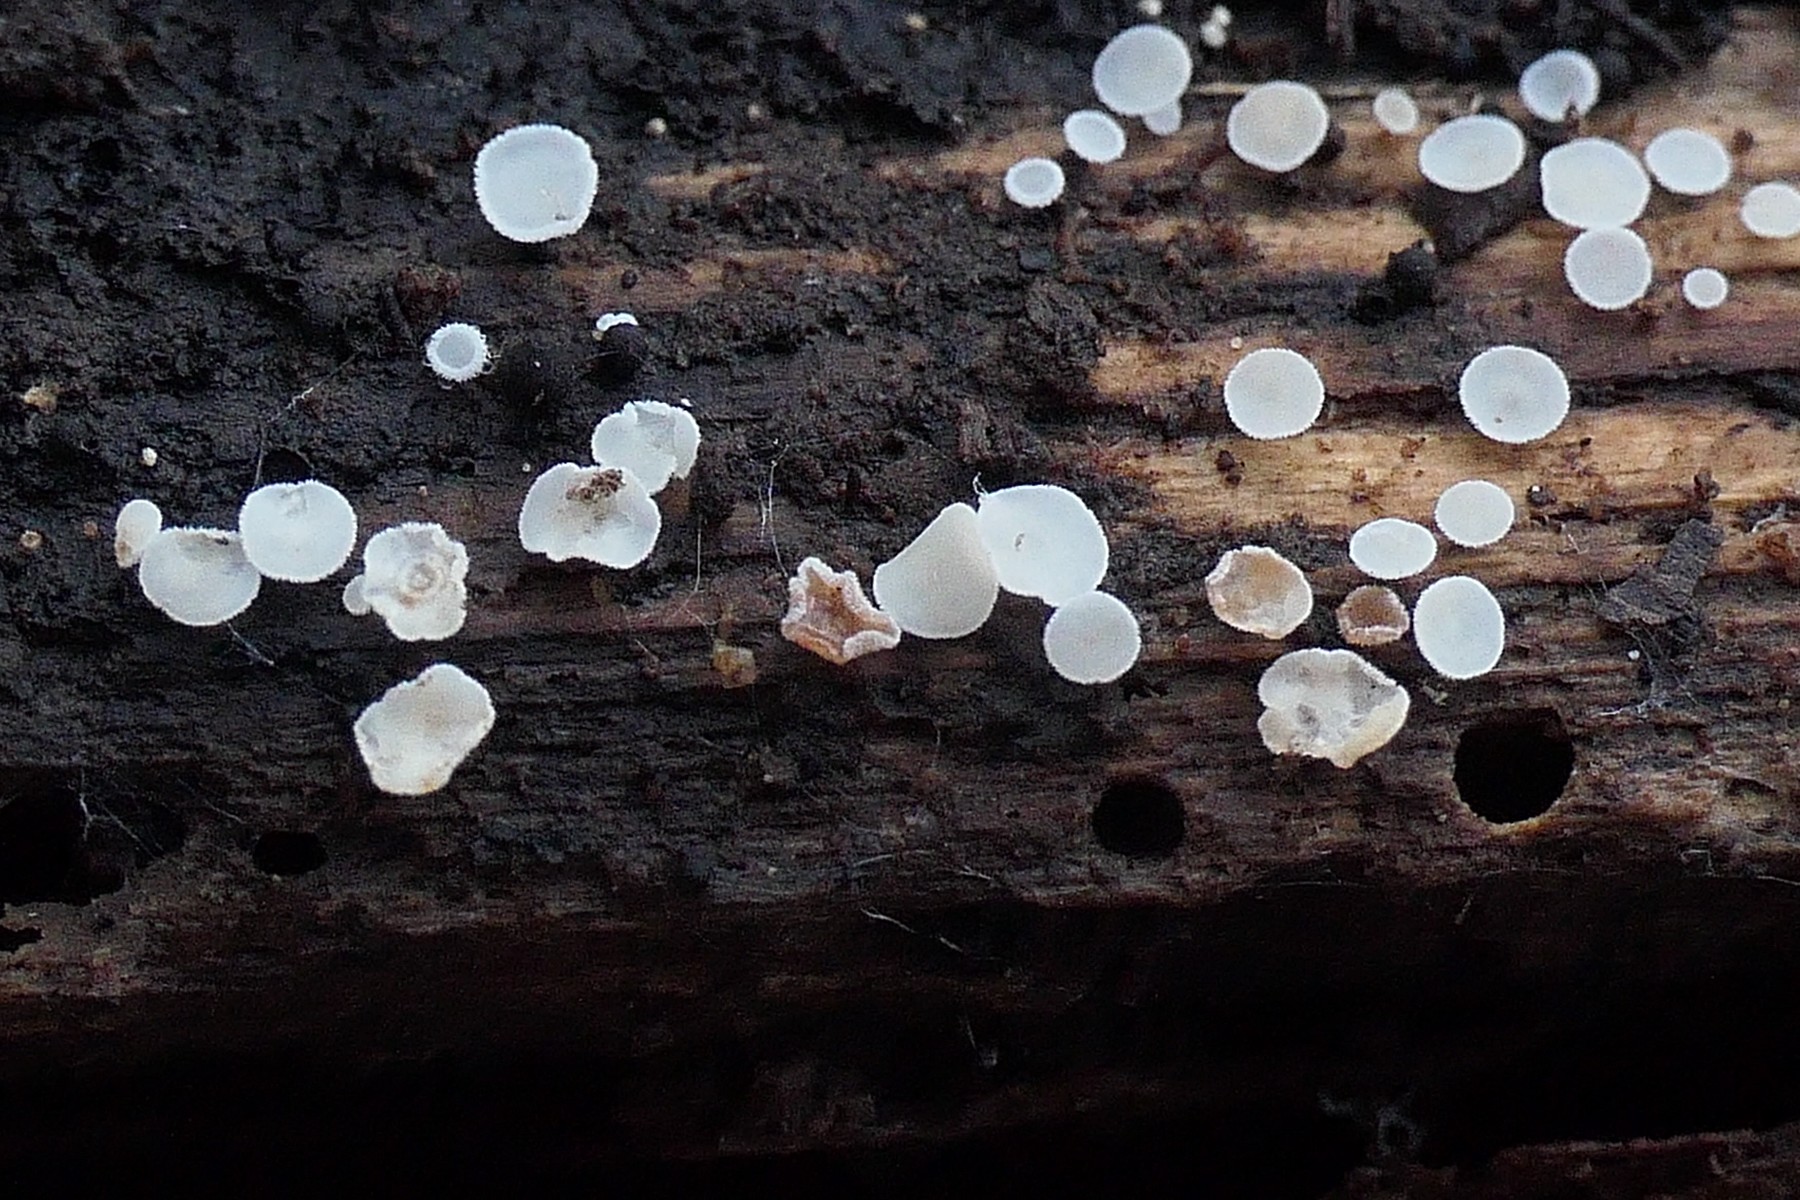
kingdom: Fungi
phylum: Ascomycota
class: Leotiomycetes
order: Helotiales
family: Lachnaceae
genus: Lachnum
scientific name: Lachnum brevipilosum
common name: korthåret frynseskive
